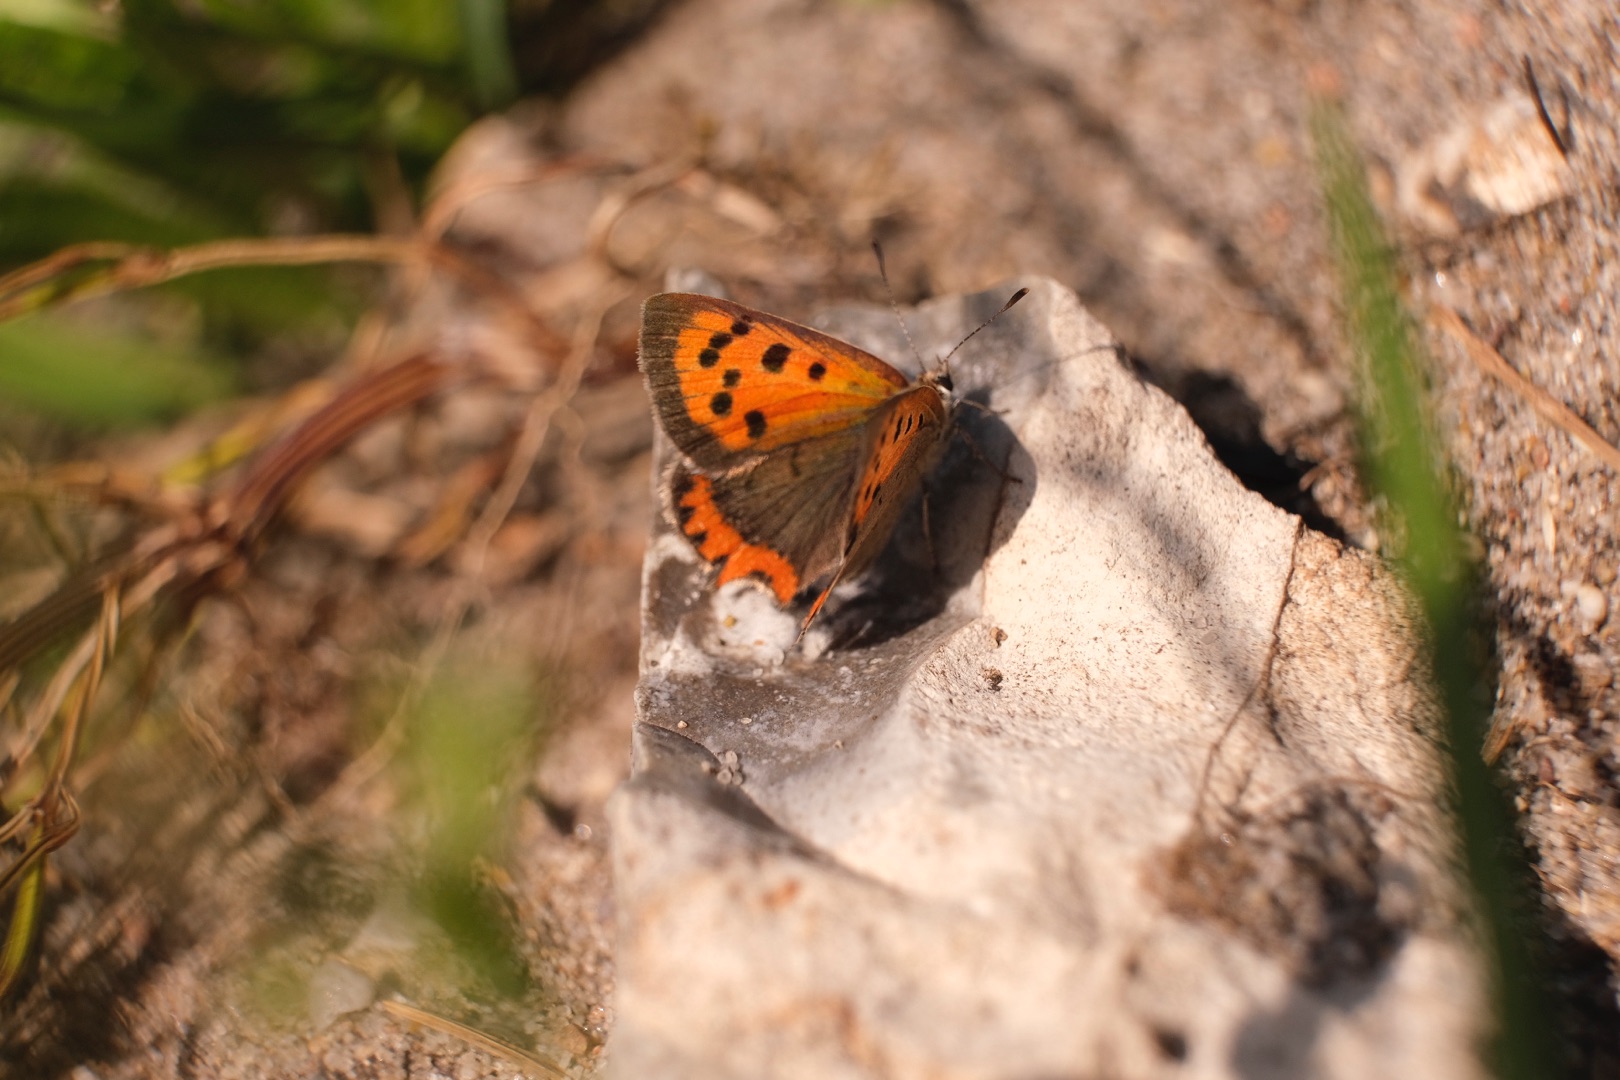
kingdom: Animalia
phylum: Arthropoda
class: Insecta
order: Lepidoptera
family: Lycaenidae
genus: Lycaena
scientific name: Lycaena phlaeas
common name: Lille ildfugl
